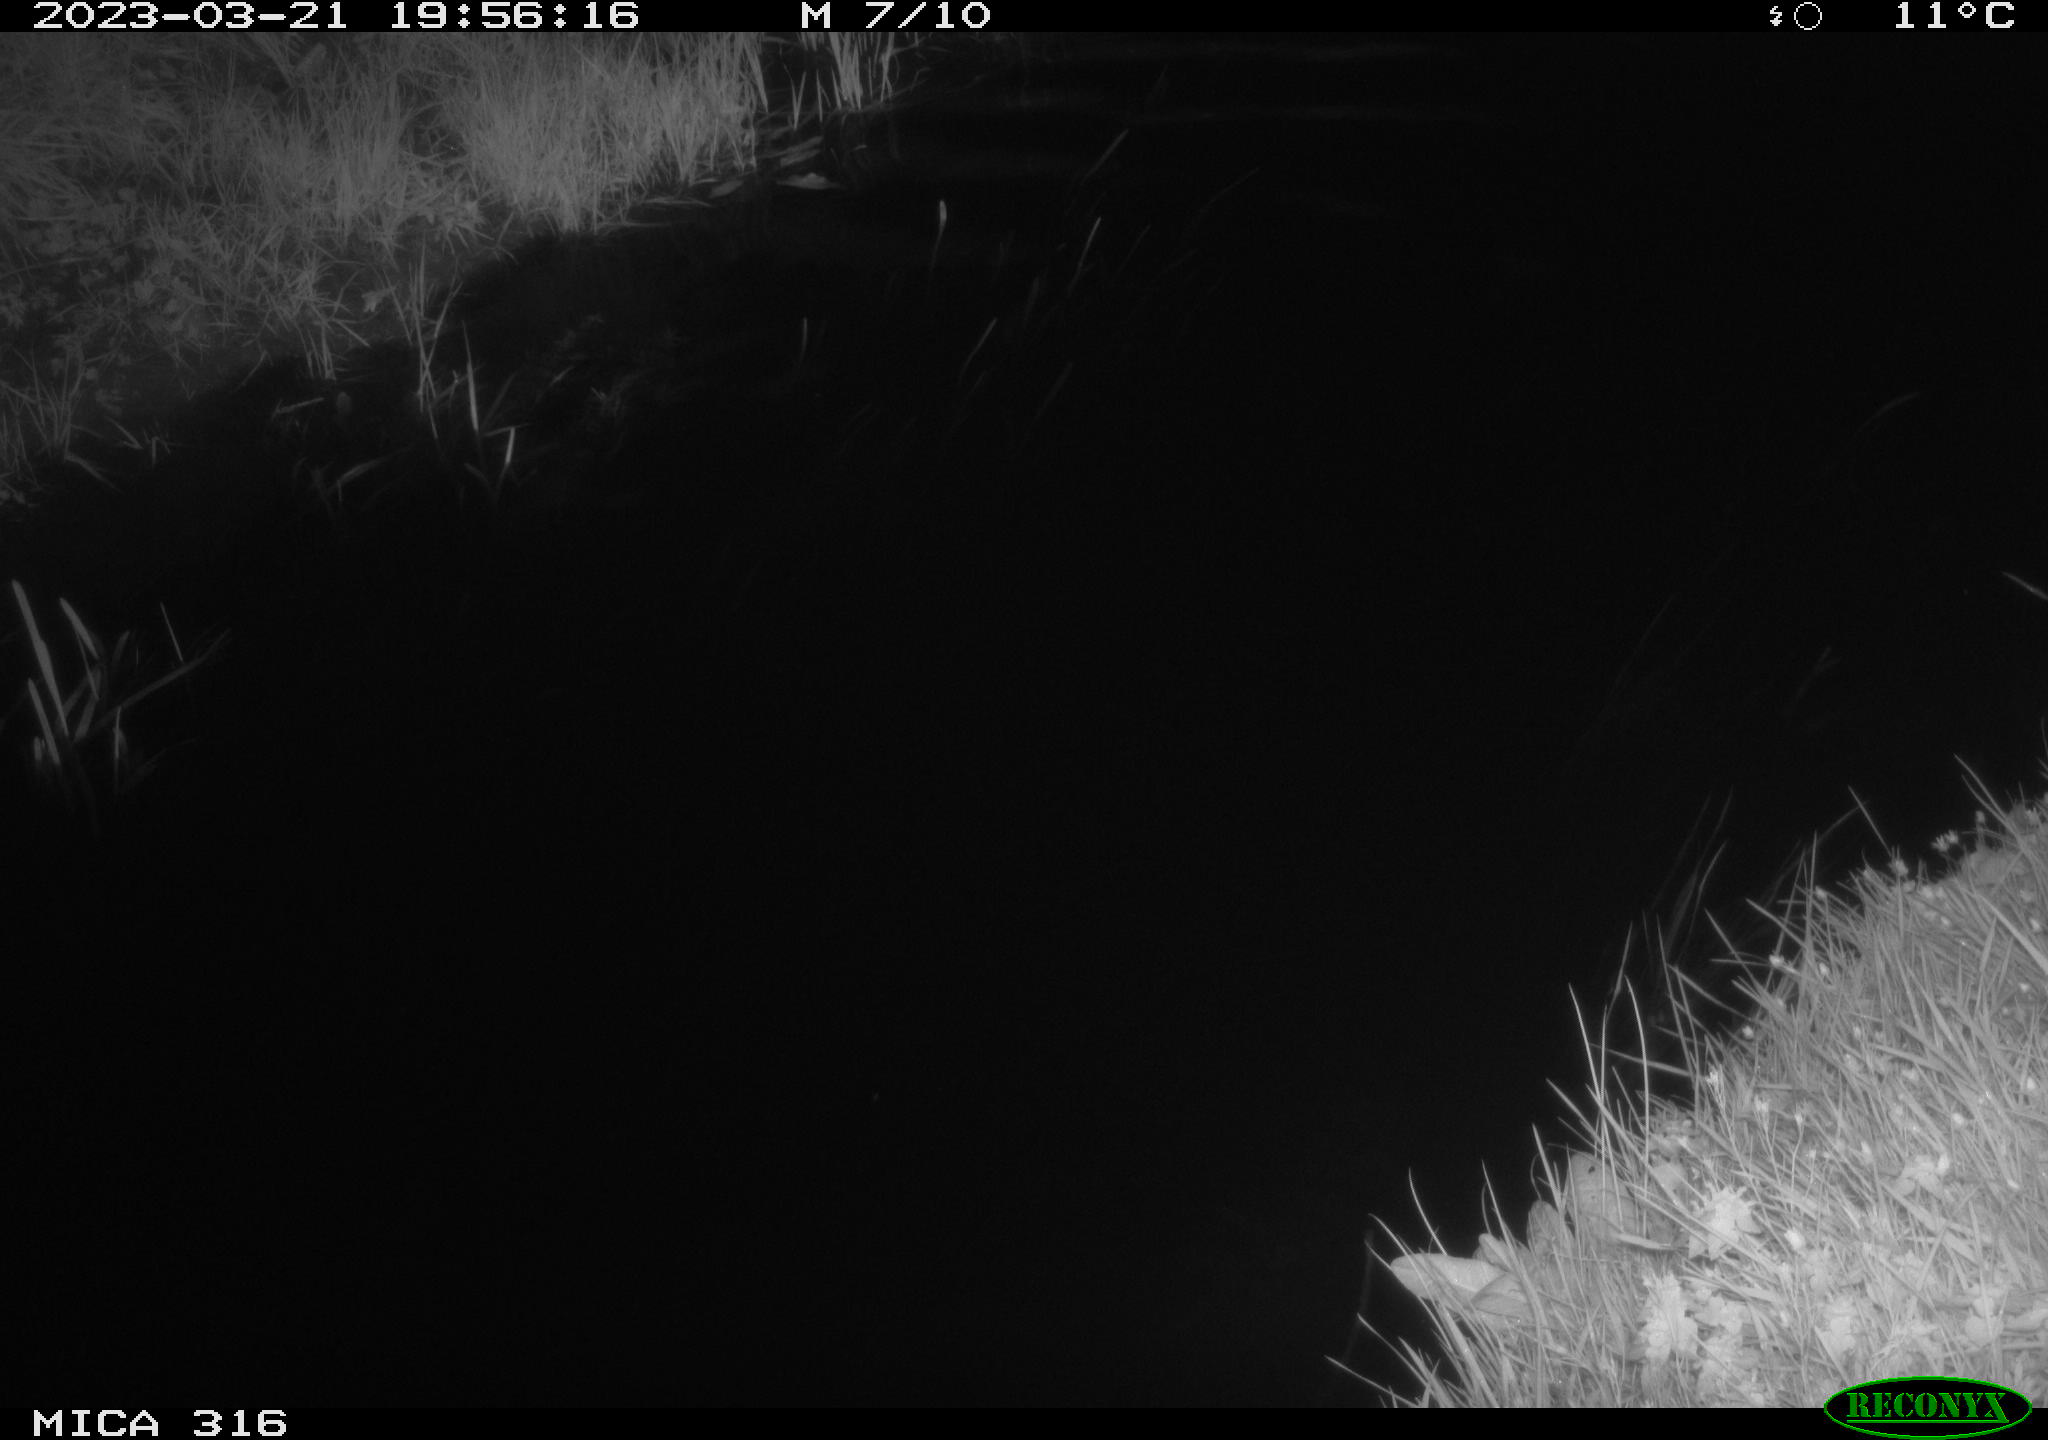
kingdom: Animalia
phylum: Chordata
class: Aves
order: Anseriformes
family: Anatidae
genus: Anas
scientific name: Anas
